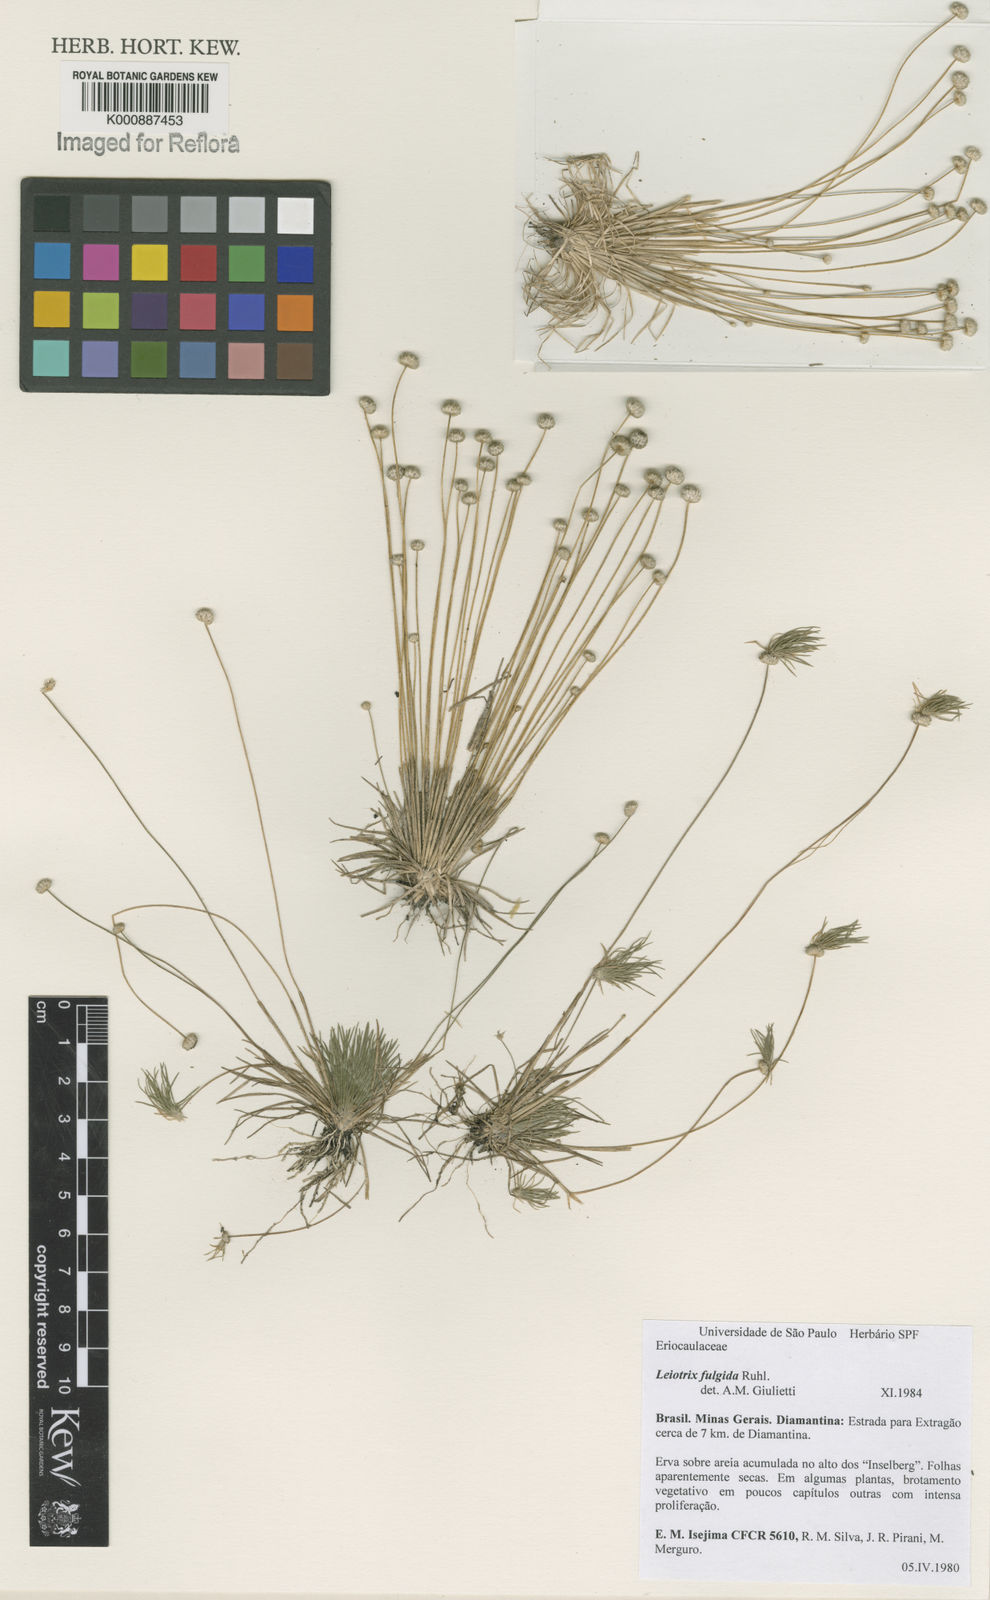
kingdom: Plantae
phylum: Tracheophyta
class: Liliopsida
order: Poales
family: Eriocaulaceae
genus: Leiothrix
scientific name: Leiothrix fulgida
